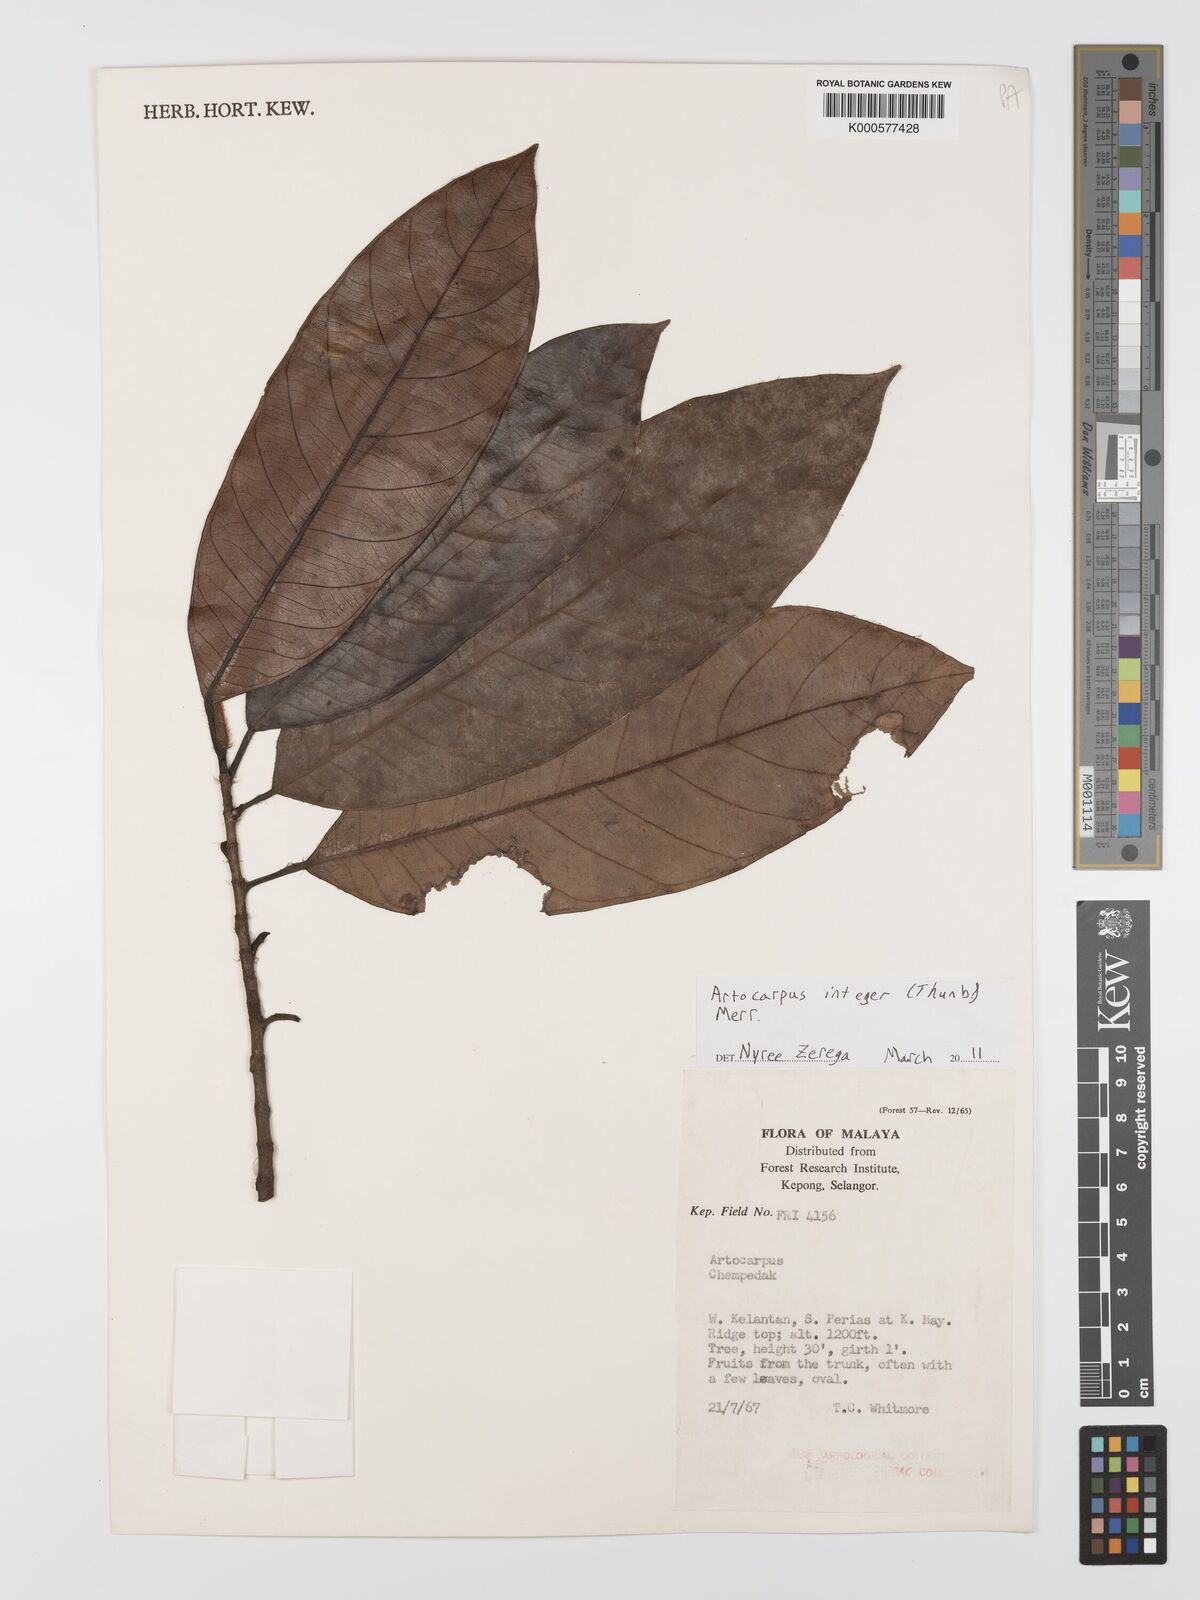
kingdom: Plantae
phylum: Tracheophyta
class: Magnoliopsida
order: Rosales
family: Moraceae
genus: Artocarpus
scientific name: Artocarpus integer
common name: Chempedak
